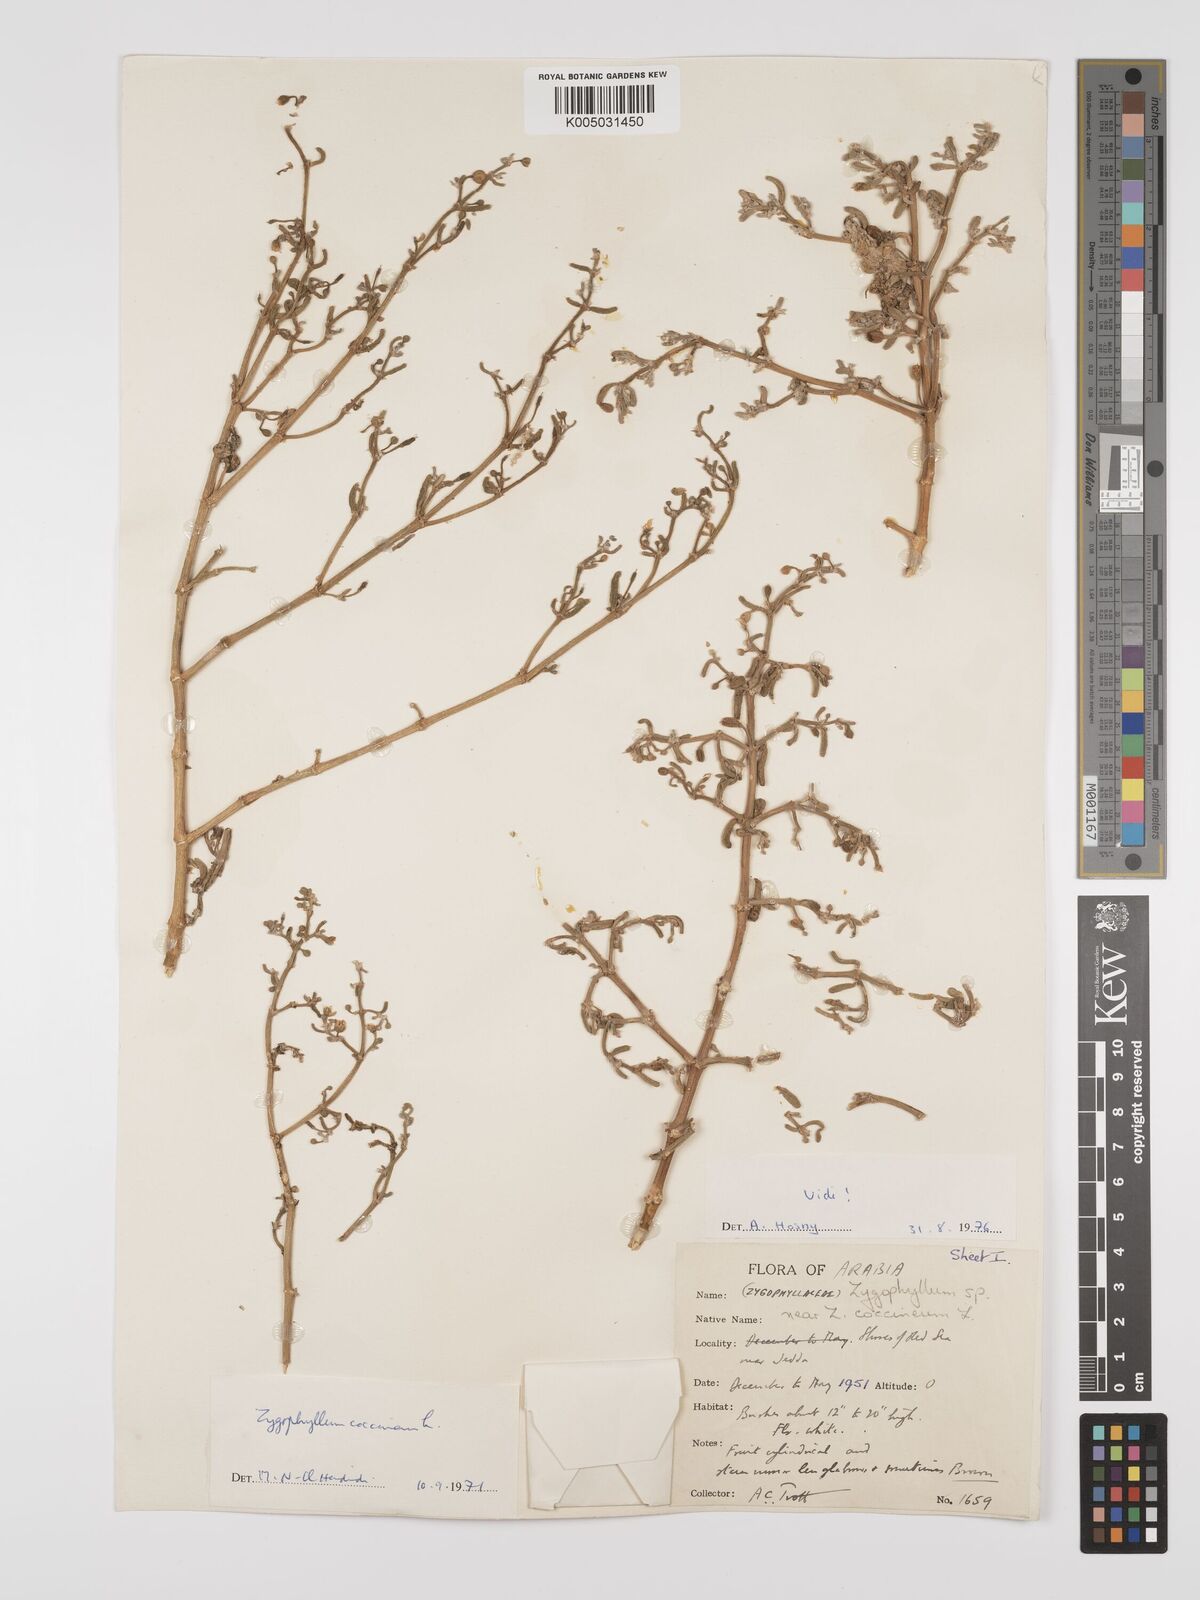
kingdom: Plantae
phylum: Tracheophyta
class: Magnoliopsida
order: Zygophyllales
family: Zygophyllaceae
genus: Zygophyllum
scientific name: Zygophyllum
